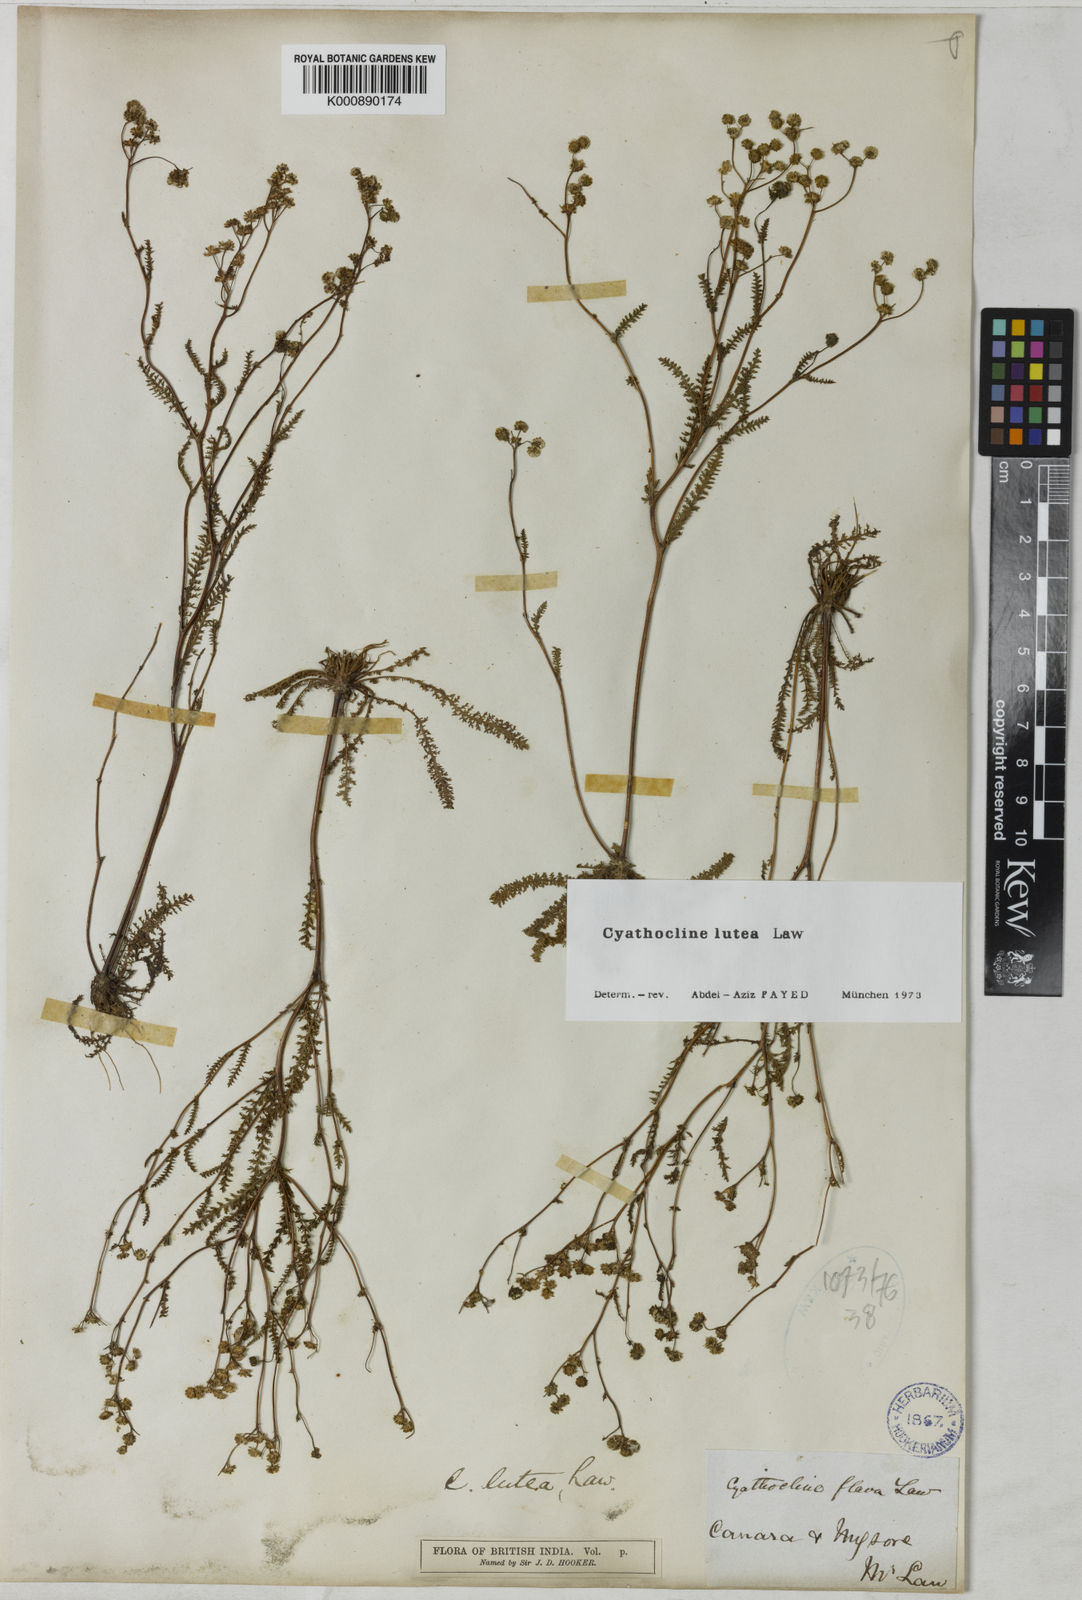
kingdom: Plantae
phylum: Tracheophyta
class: Magnoliopsida
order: Asterales
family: Asteraceae
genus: Cyathocline
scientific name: Cyathocline lutea
